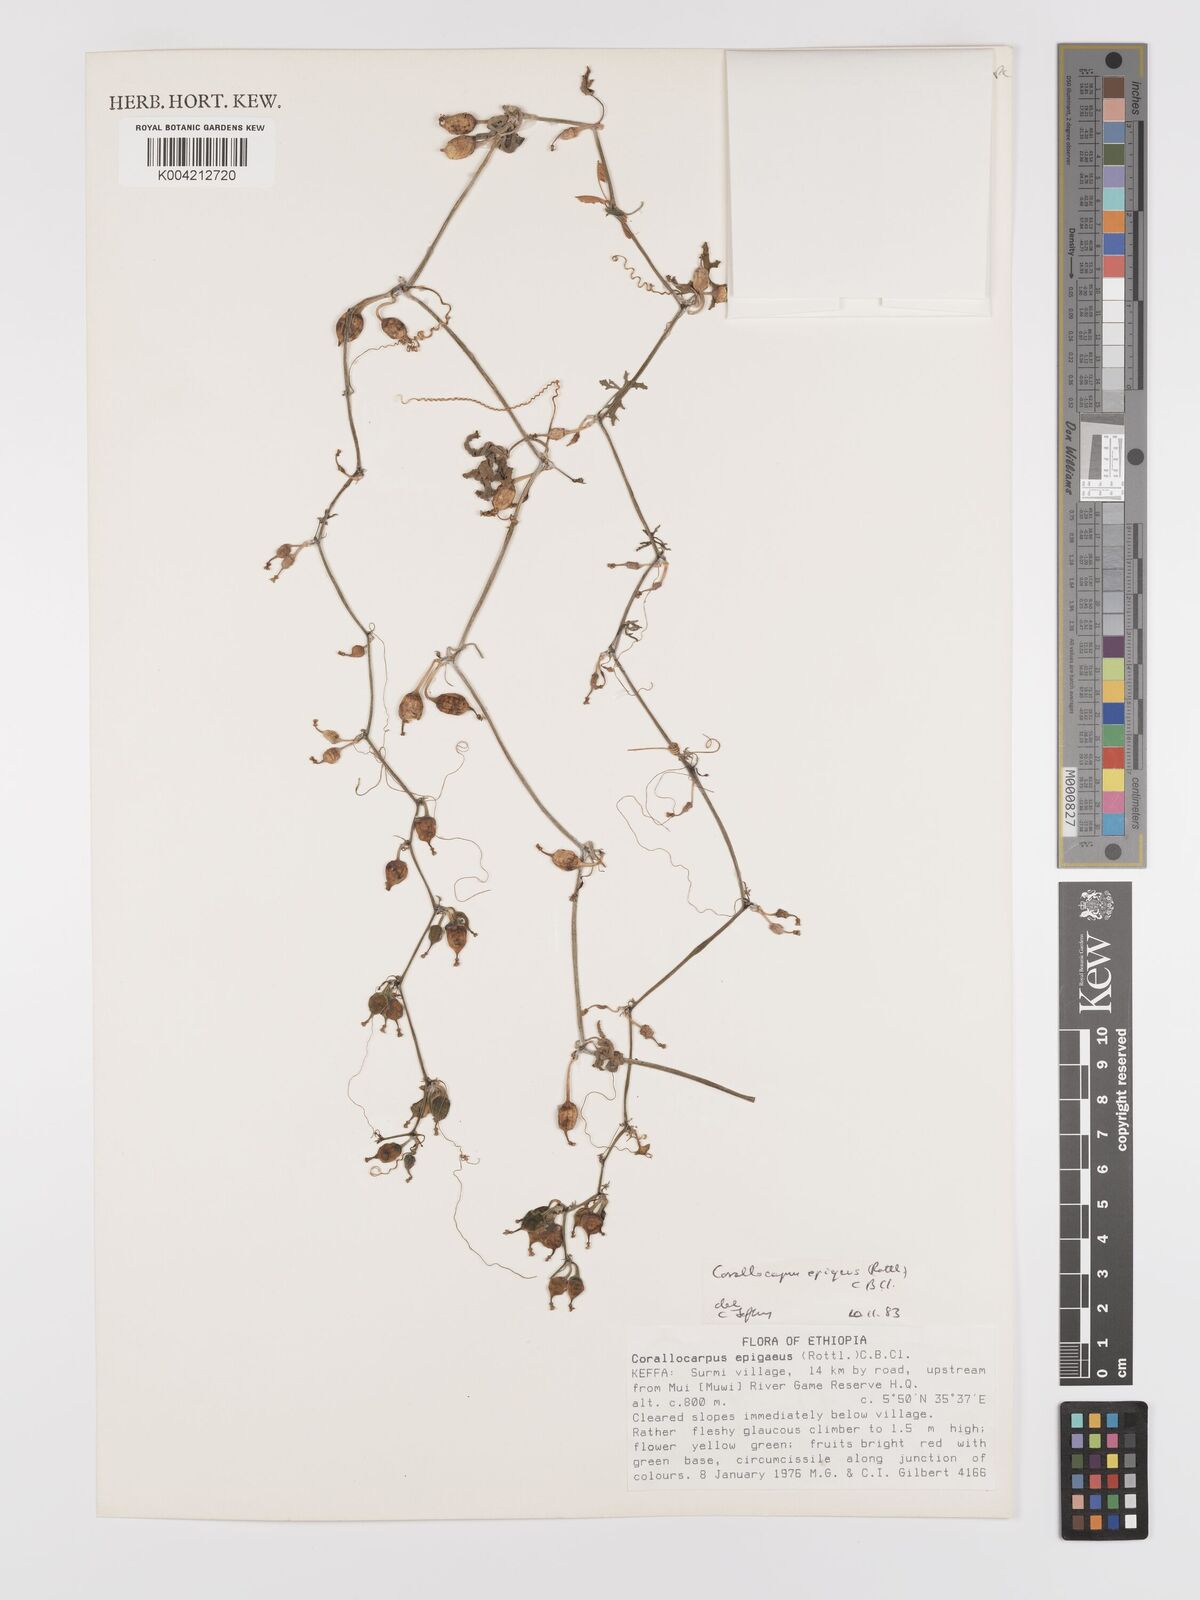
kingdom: Plantae
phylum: Tracheophyta
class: Magnoliopsida
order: Cucurbitales
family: Cucurbitaceae
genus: Corallocarpus
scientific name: Corallocarpus epigaeus
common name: Indian bryonia
